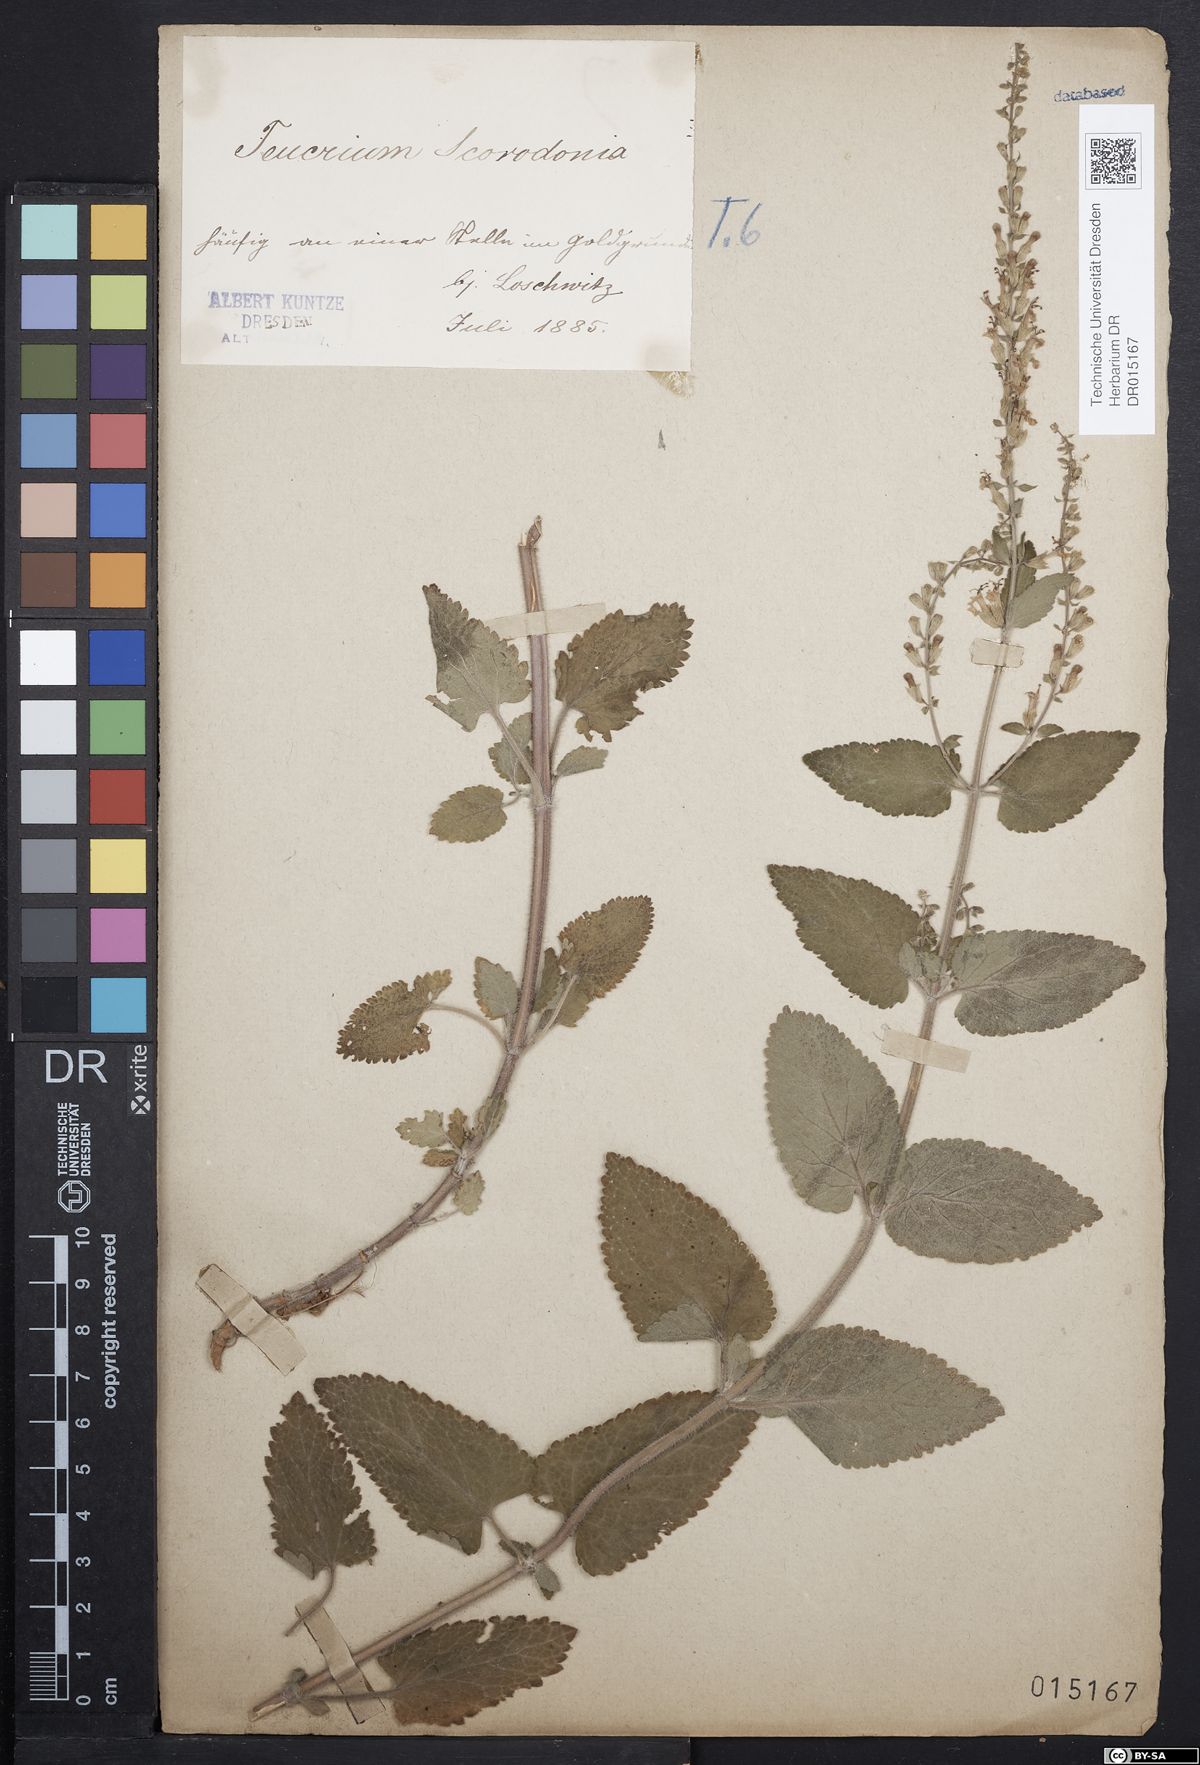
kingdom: Plantae
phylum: Tracheophyta
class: Magnoliopsida
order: Lamiales
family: Lamiaceae
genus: Teucrium
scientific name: Teucrium scorodonia
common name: Woodland germander
